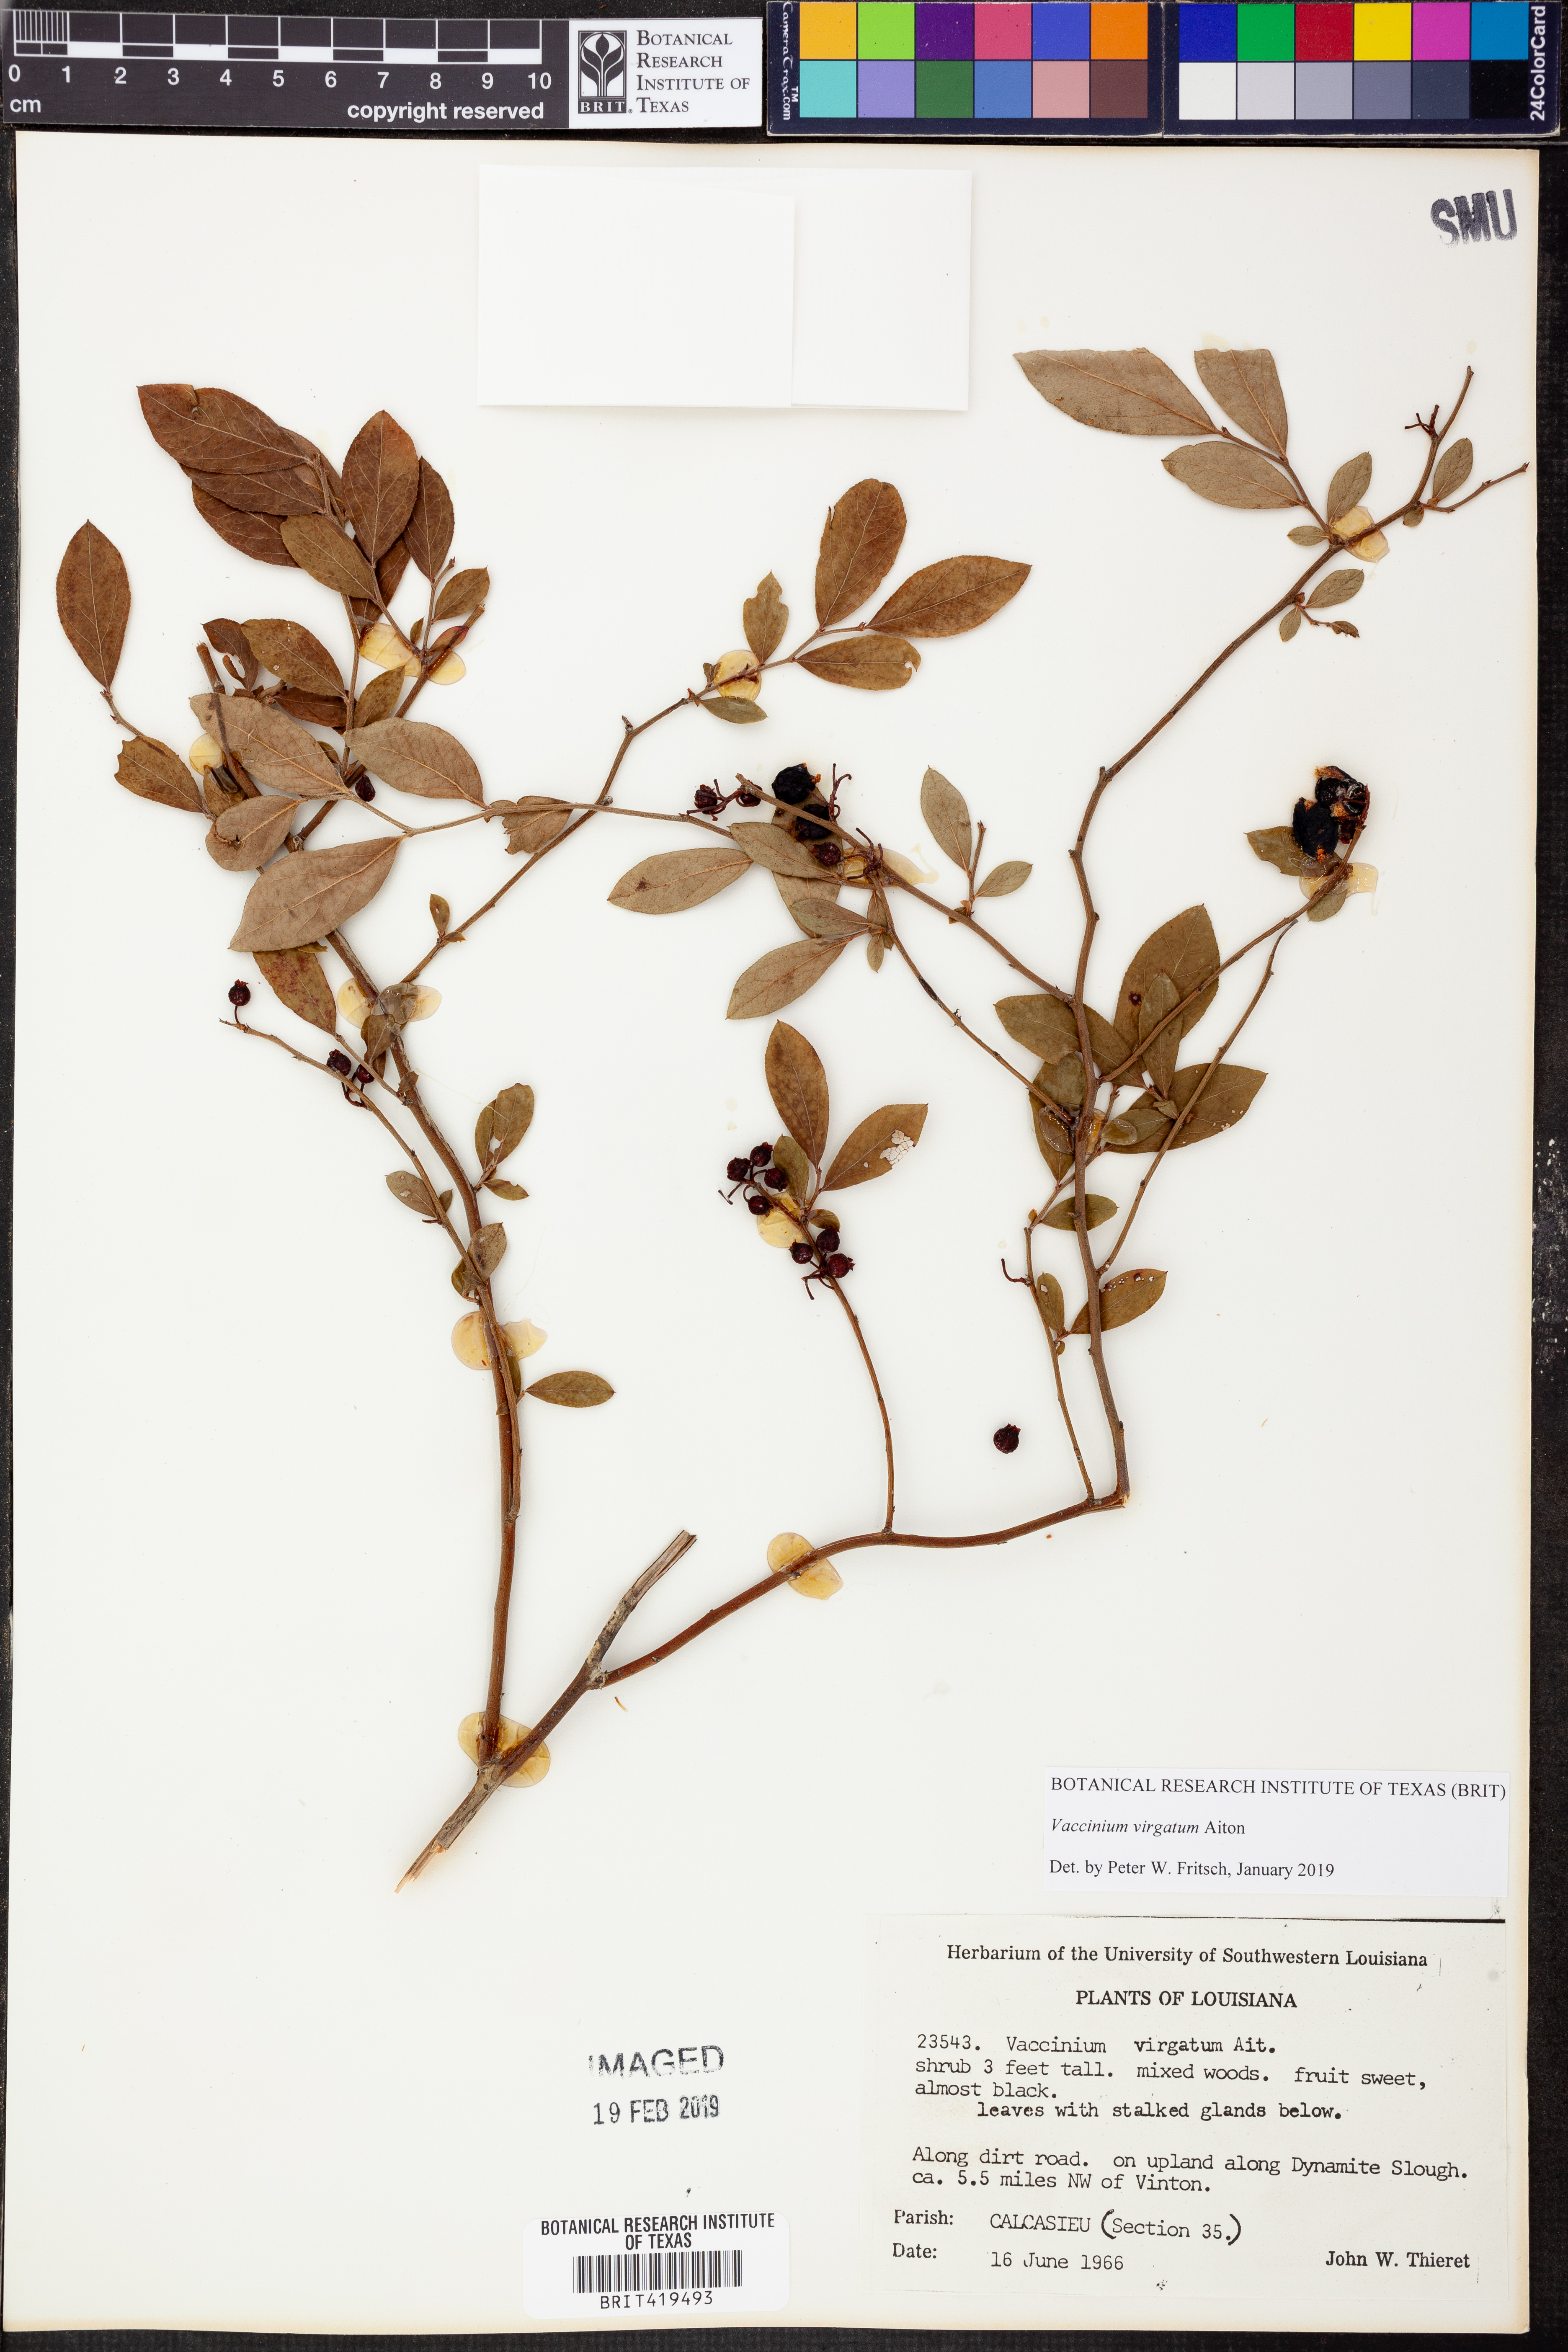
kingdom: Plantae
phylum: Tracheophyta
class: Magnoliopsida
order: Ericales
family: Ericaceae
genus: Vaccinium
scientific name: Vaccinium corymbosum
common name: Blueberry
